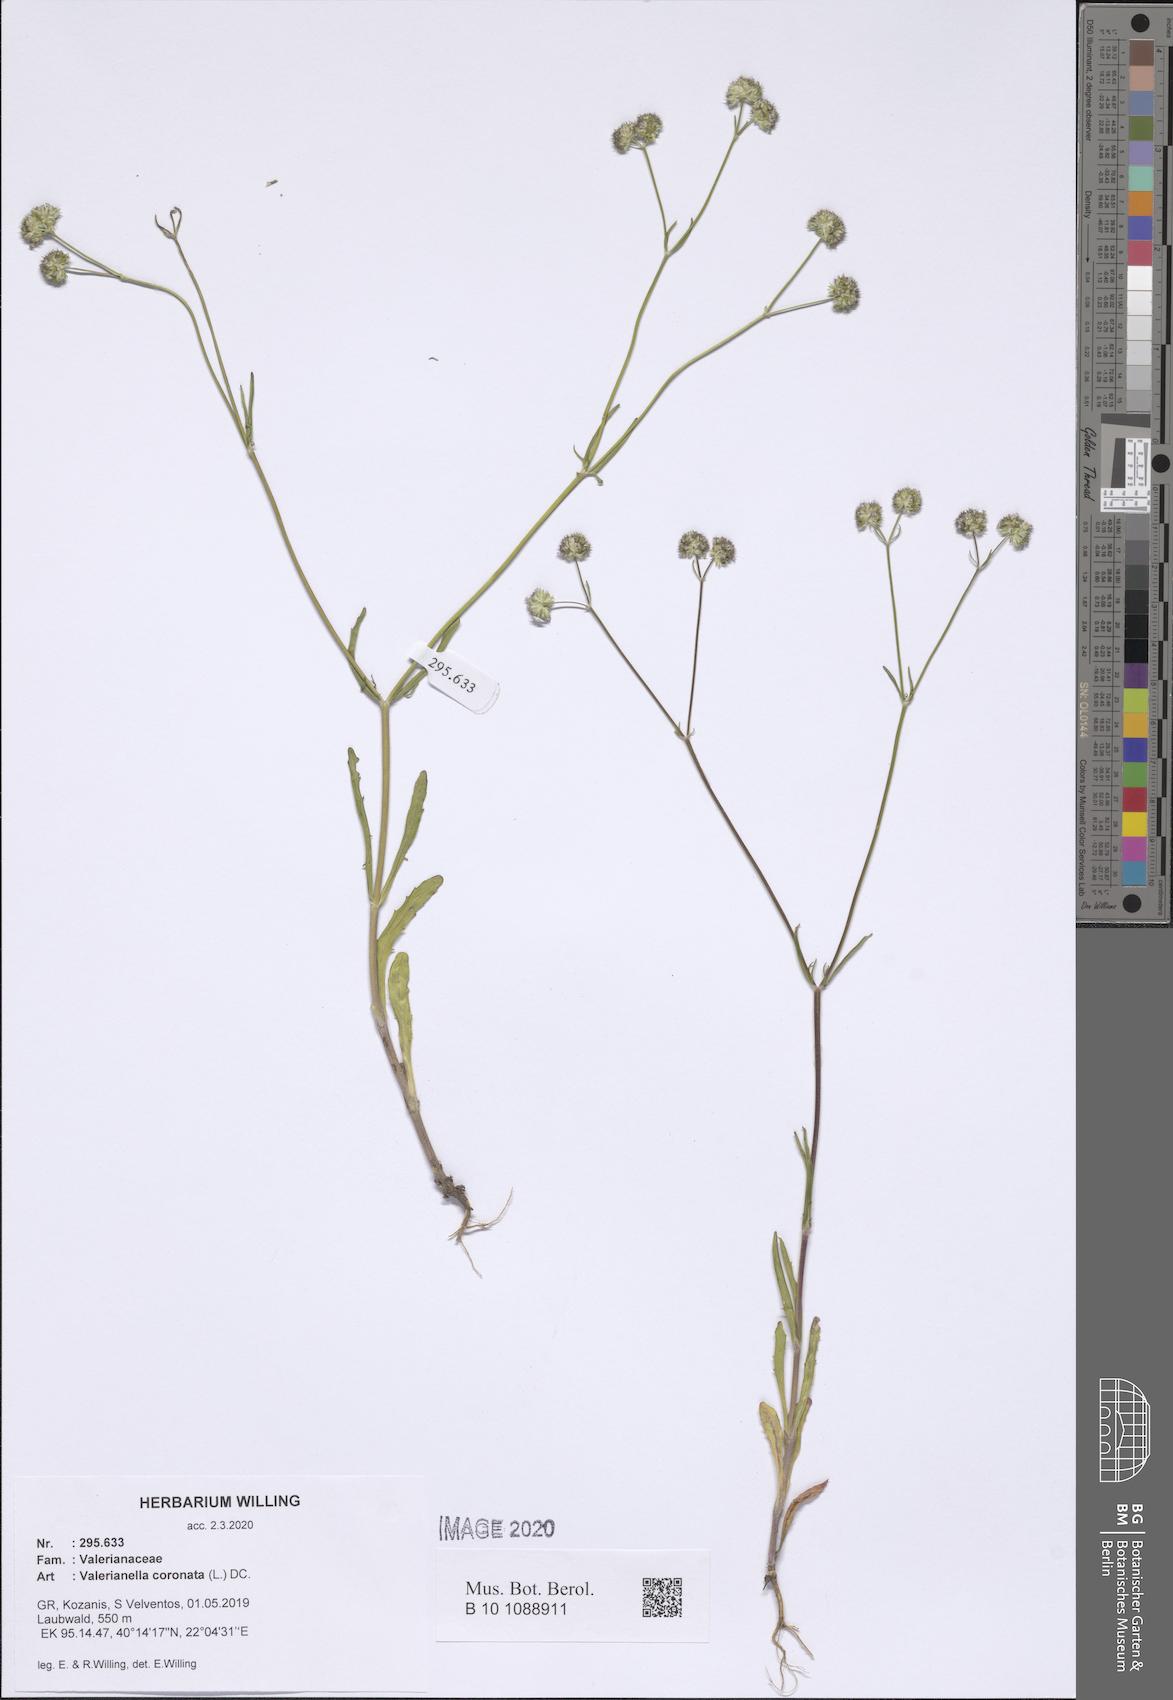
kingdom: Plantae
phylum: Tracheophyta
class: Magnoliopsida
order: Dipsacales
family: Caprifoliaceae
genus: Valerianella
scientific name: Valerianella coronata
